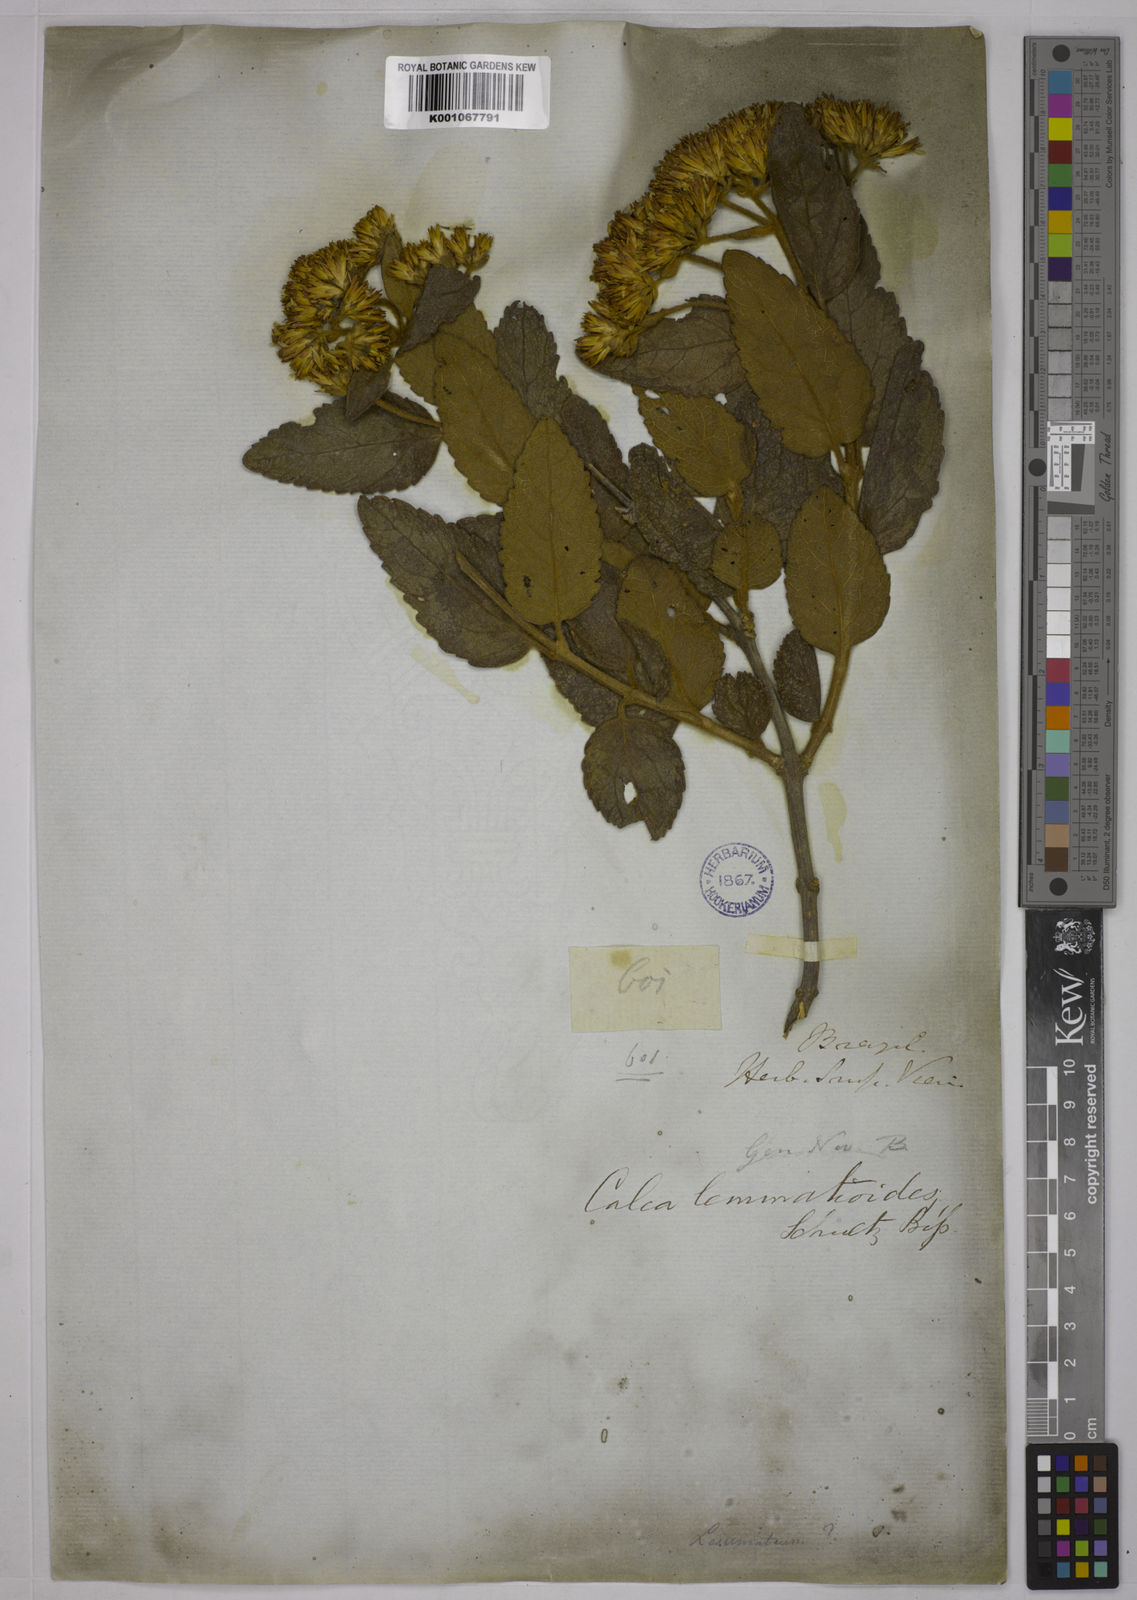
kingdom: Plantae
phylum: Tracheophyta
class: Magnoliopsida
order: Asterales
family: Asteraceae
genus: Calea
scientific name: Calea lemmatioides
